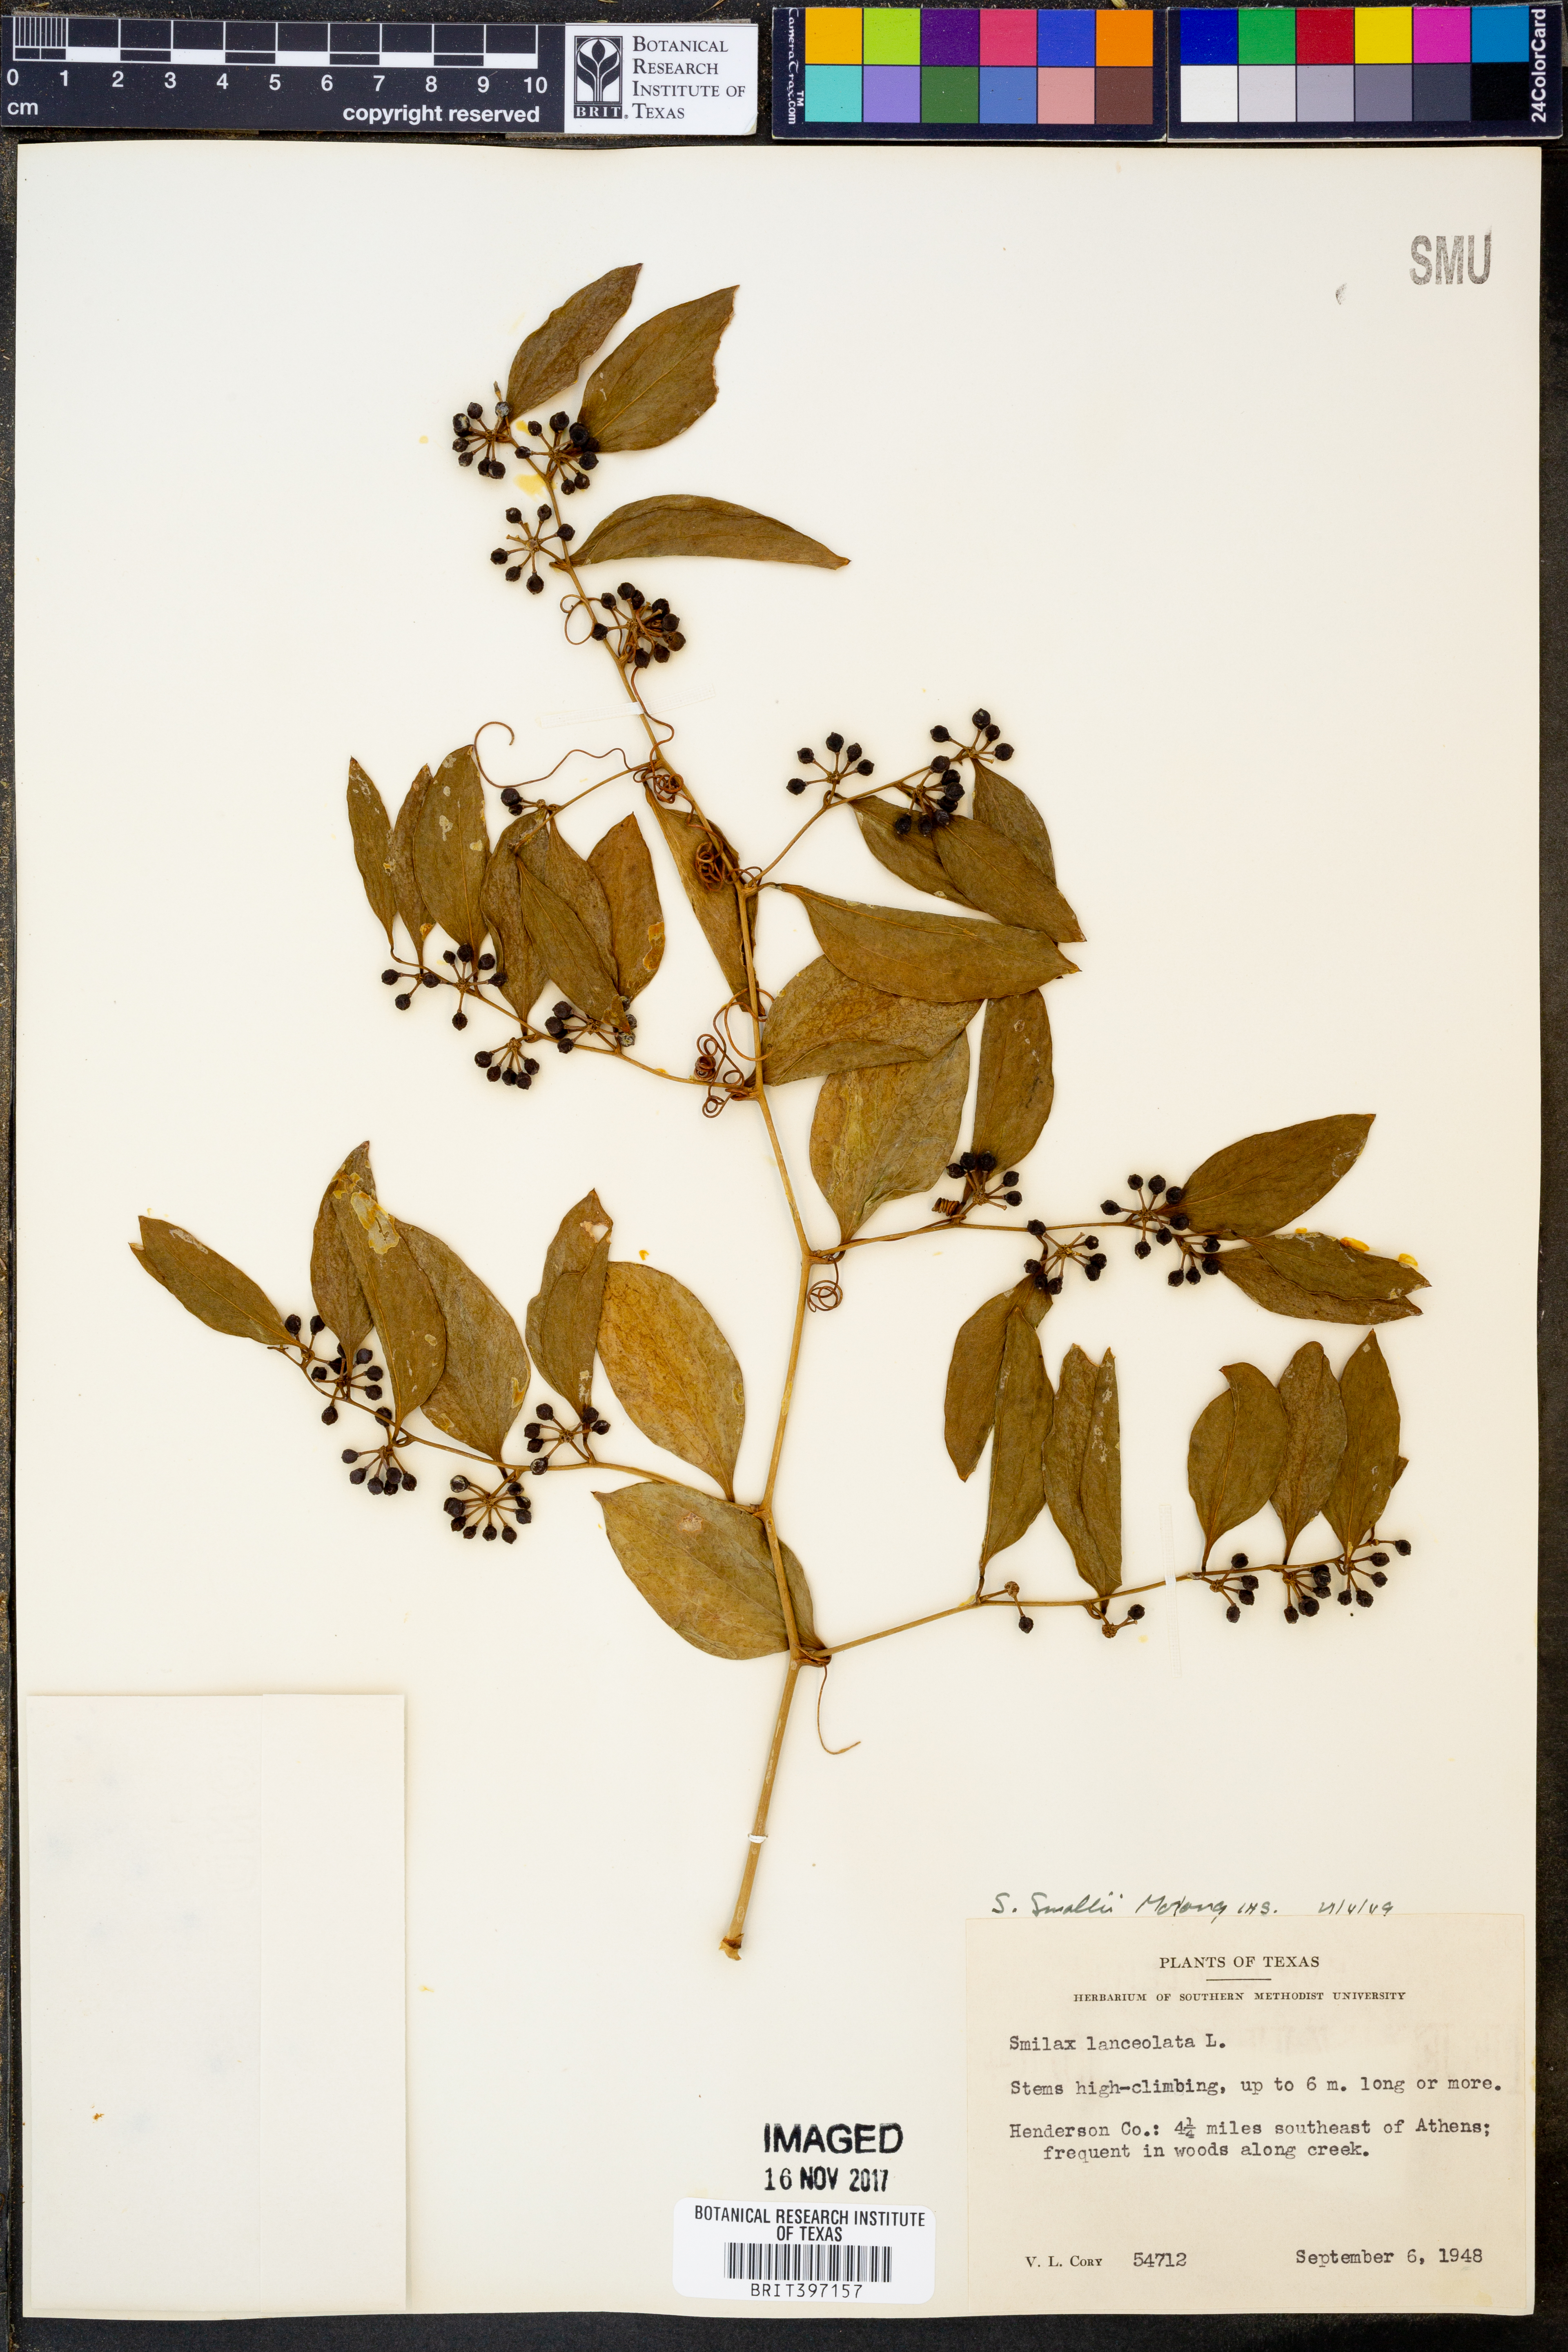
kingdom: Plantae
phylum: Tracheophyta
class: Liliopsida
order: Liliales
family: Smilacaceae
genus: Smilax
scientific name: Smilax maritima
